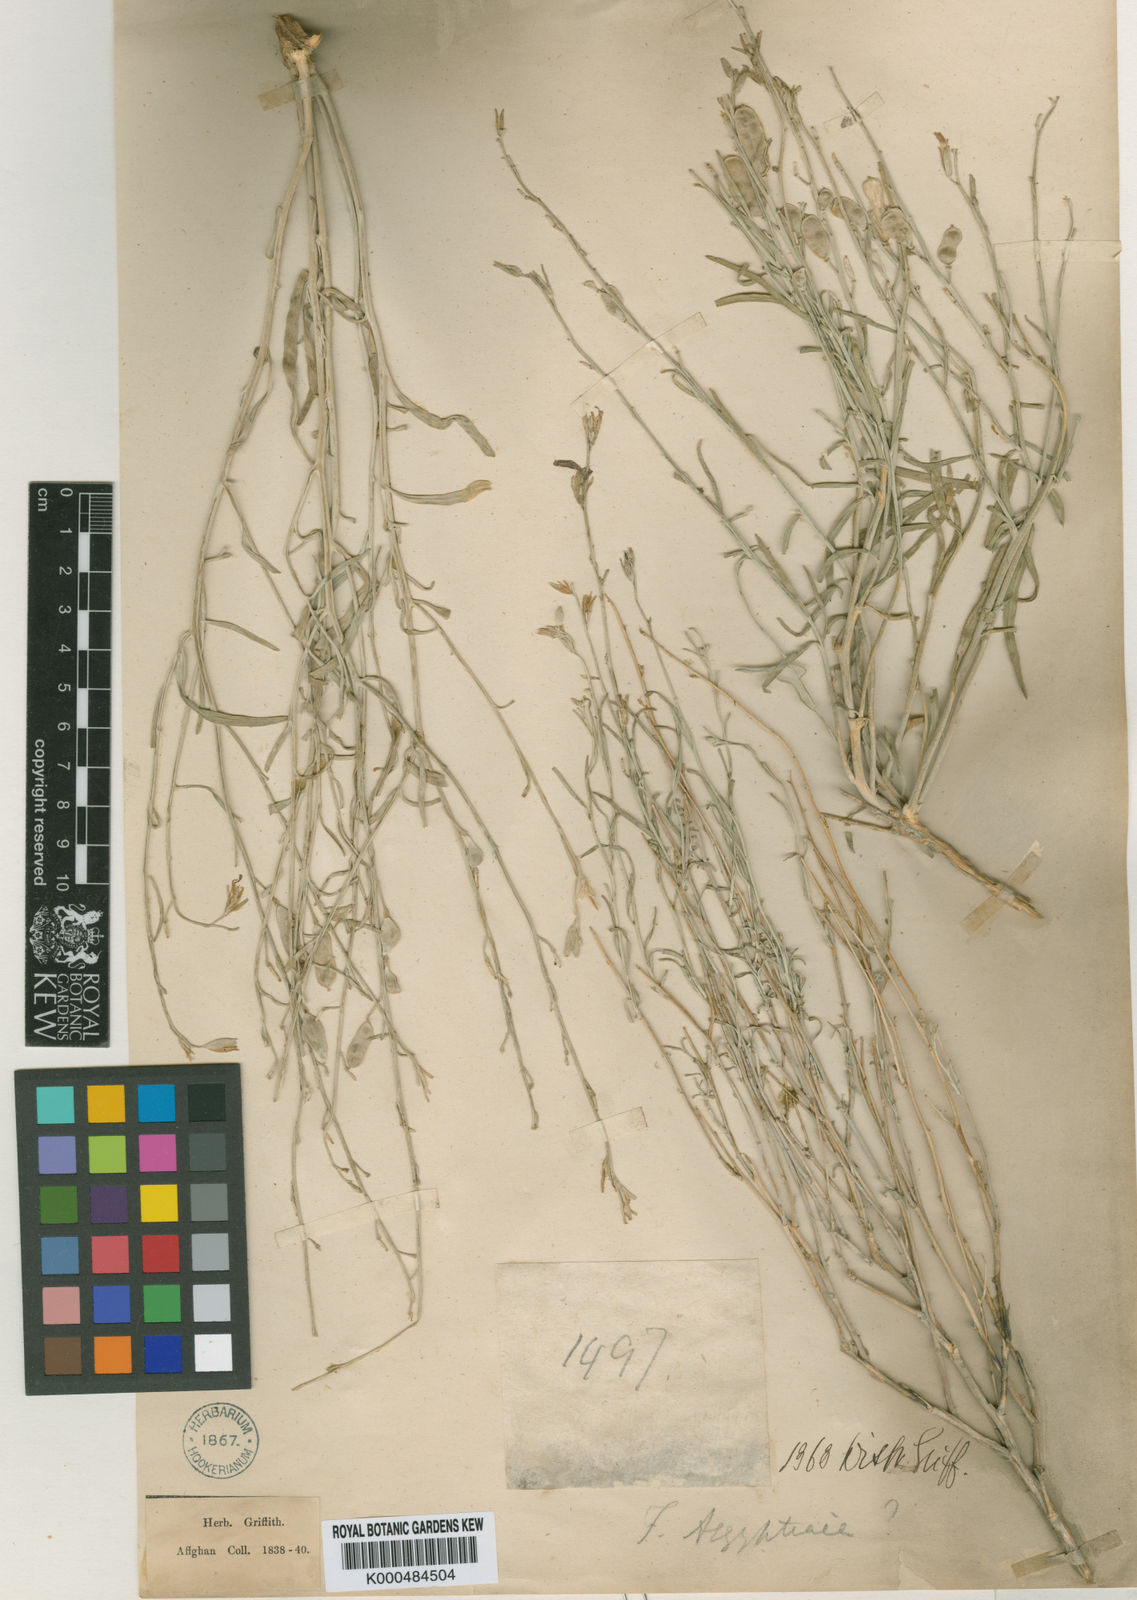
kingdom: Plantae
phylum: Tracheophyta
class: Magnoliopsida
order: Brassicales
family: Brassicaceae
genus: Farsetia
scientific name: Farsetia aegyptia
